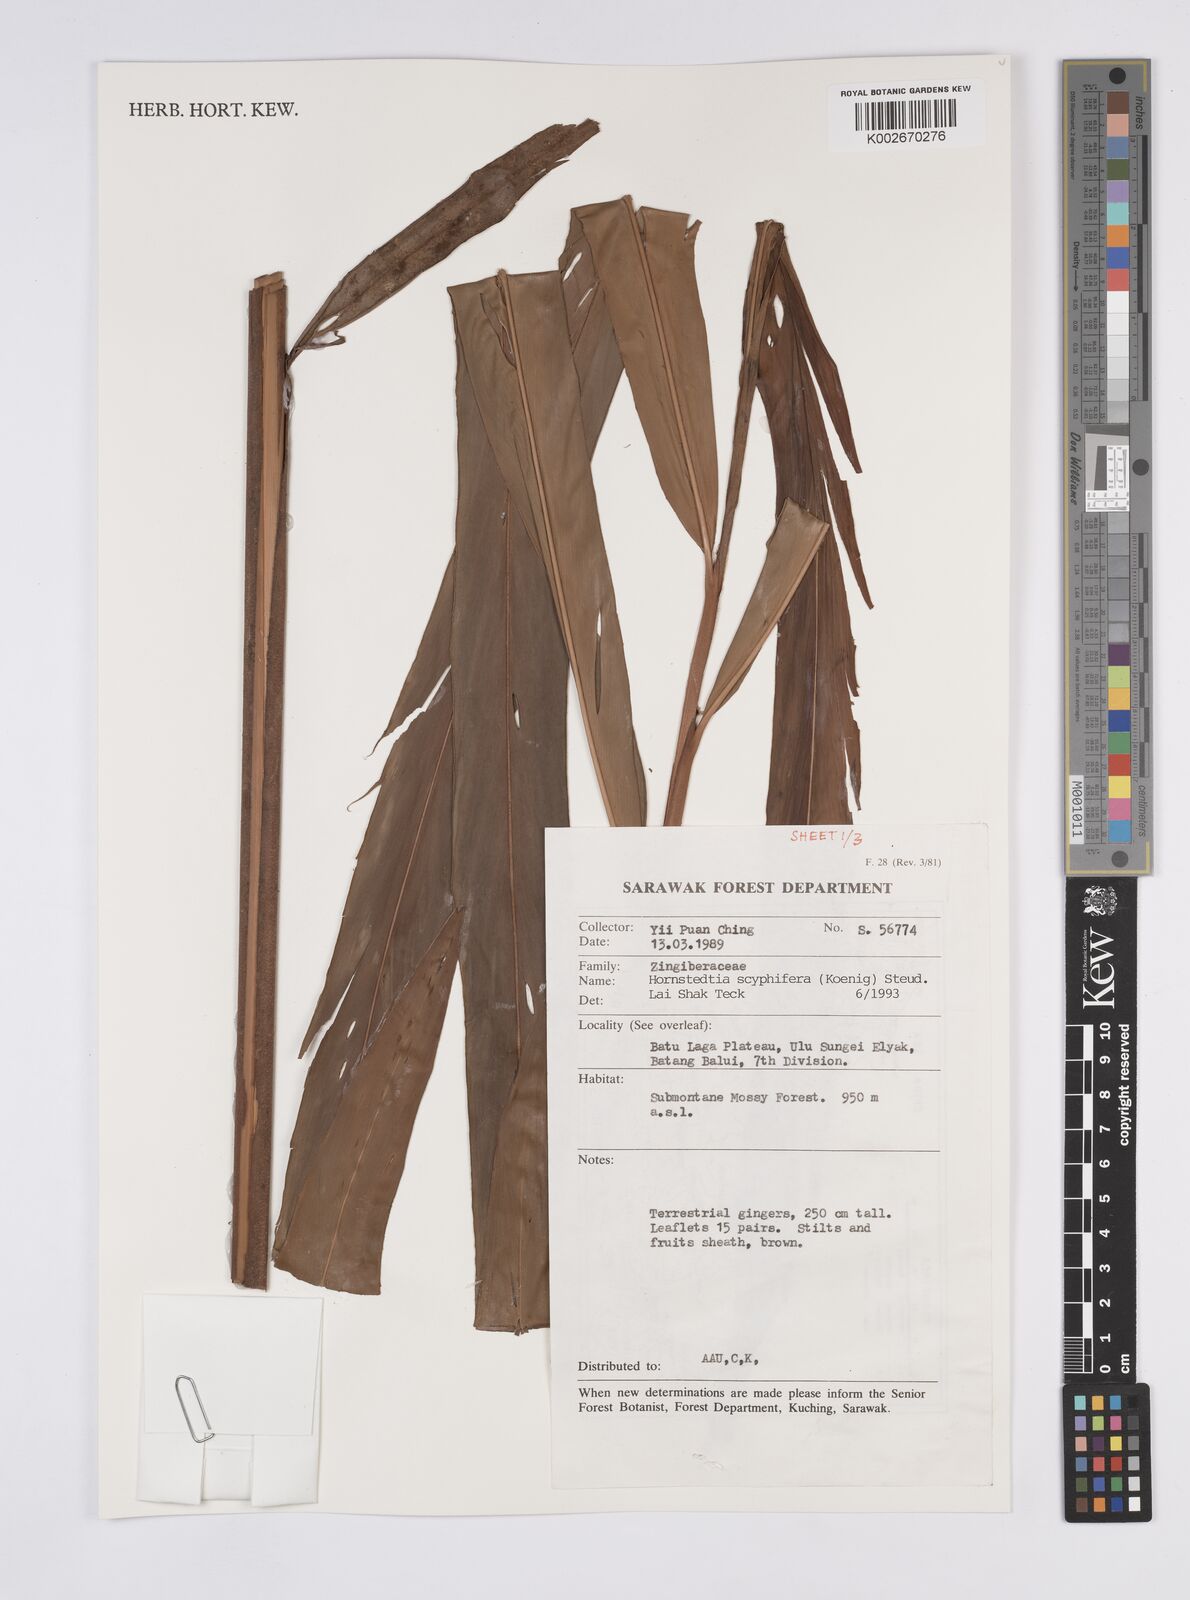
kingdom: Plantae
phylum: Tracheophyta
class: Liliopsida
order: Zingiberales
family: Zingiberaceae
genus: Hornstedtia
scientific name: Hornstedtia scyphifera
